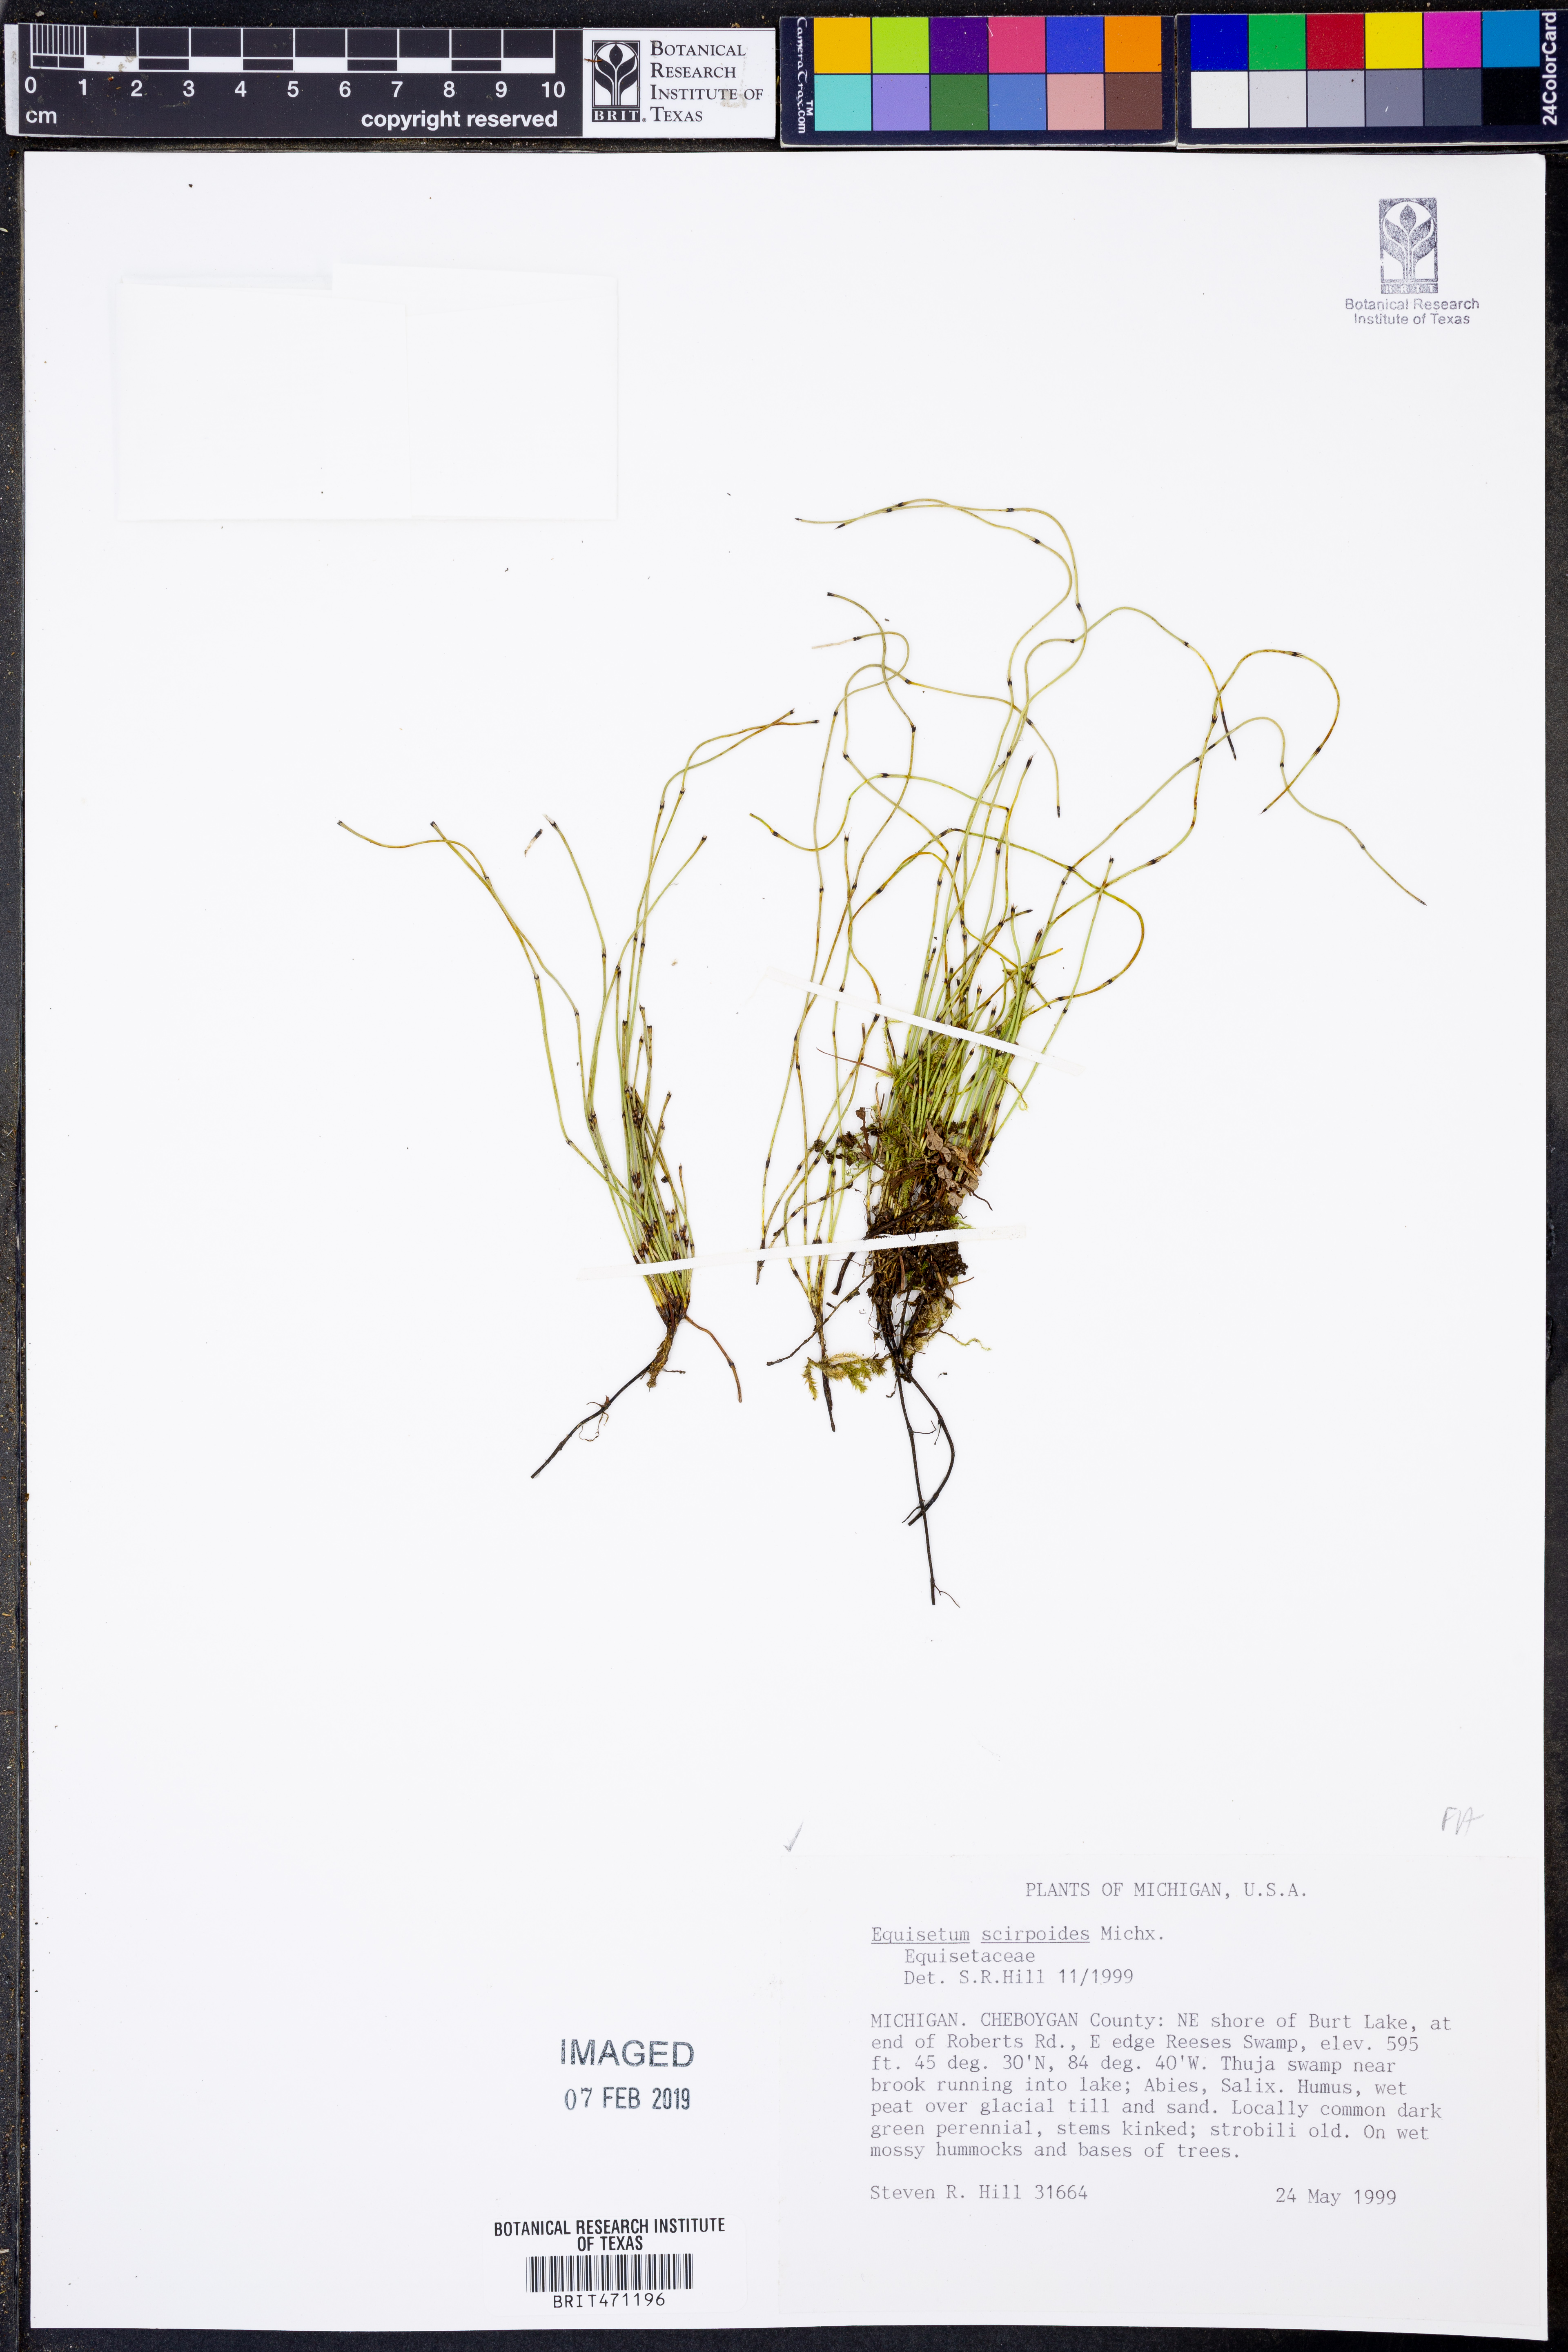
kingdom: Plantae
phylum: Tracheophyta
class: Polypodiopsida
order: Equisetales
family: Equisetaceae
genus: Equisetum
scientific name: Equisetum scirpoides
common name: Delicate horsetail
